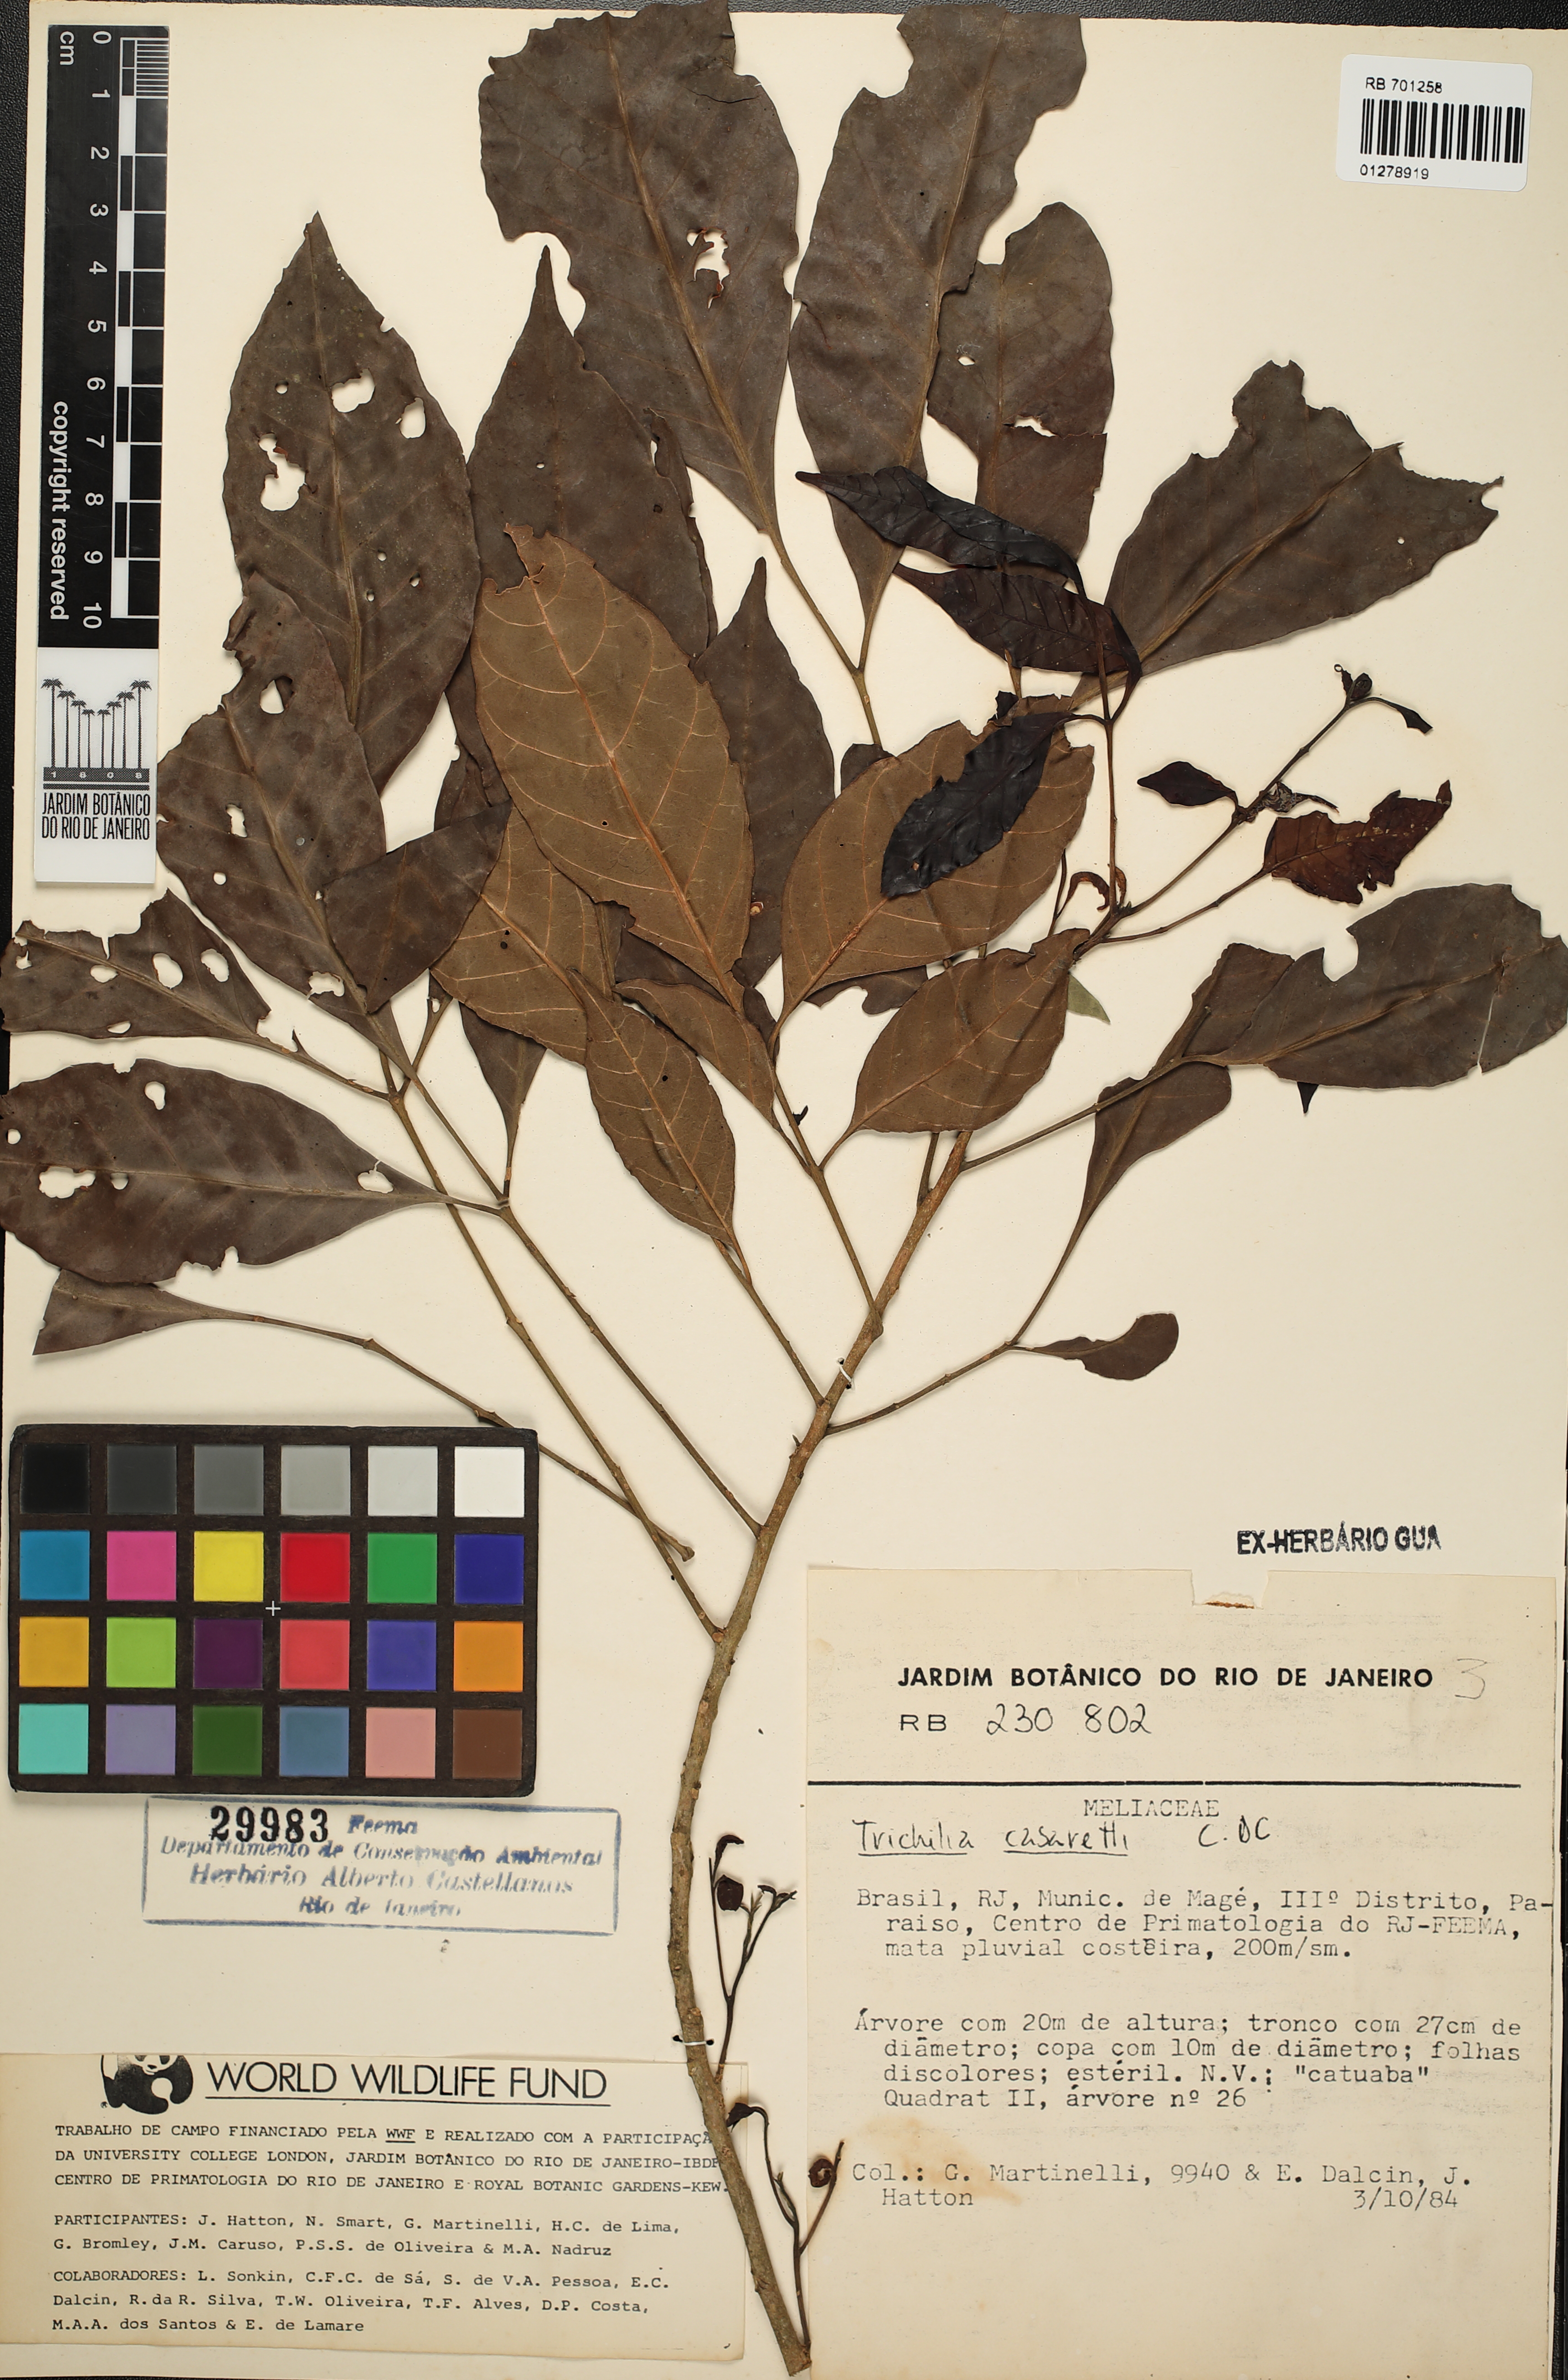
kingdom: Plantae
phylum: Tracheophyta
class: Magnoliopsida
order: Sapindales
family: Meliaceae
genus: Trichilia
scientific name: Trichilia casaretti
